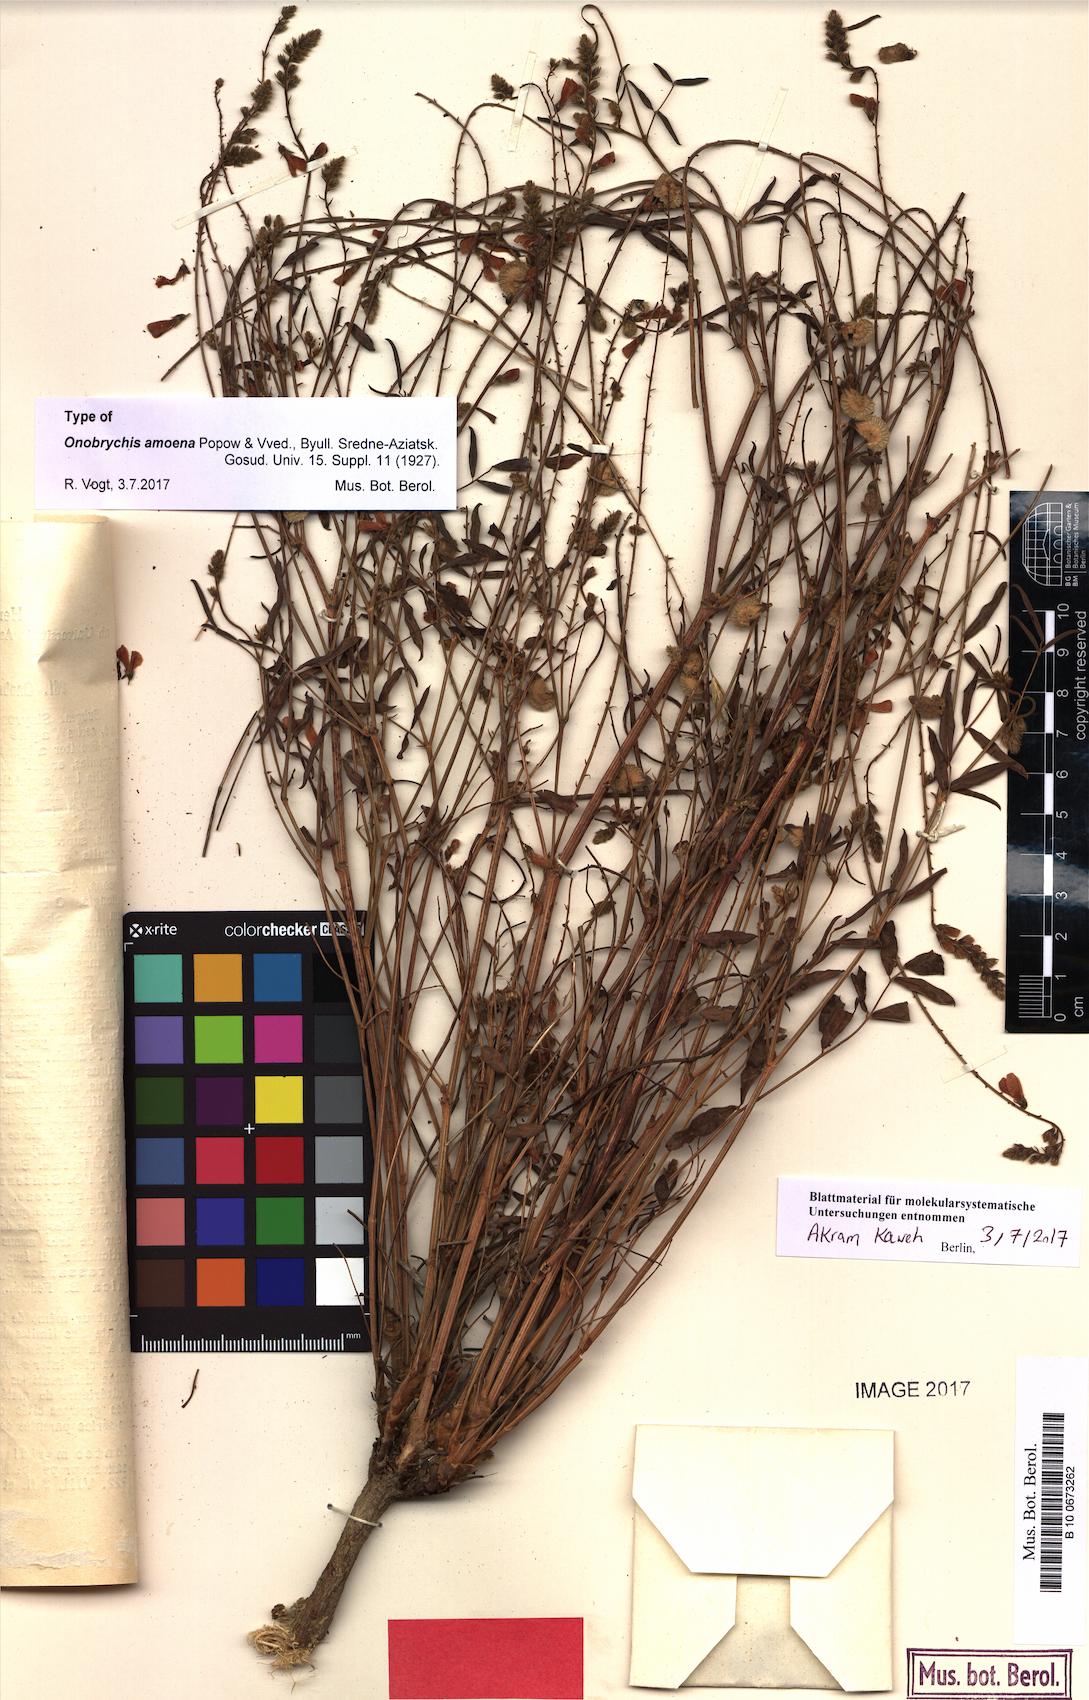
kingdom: Plantae
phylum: Tracheophyta
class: Magnoliopsida
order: Fabales
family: Fabaceae
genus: Onobrychis
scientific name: Onobrychis amoena
